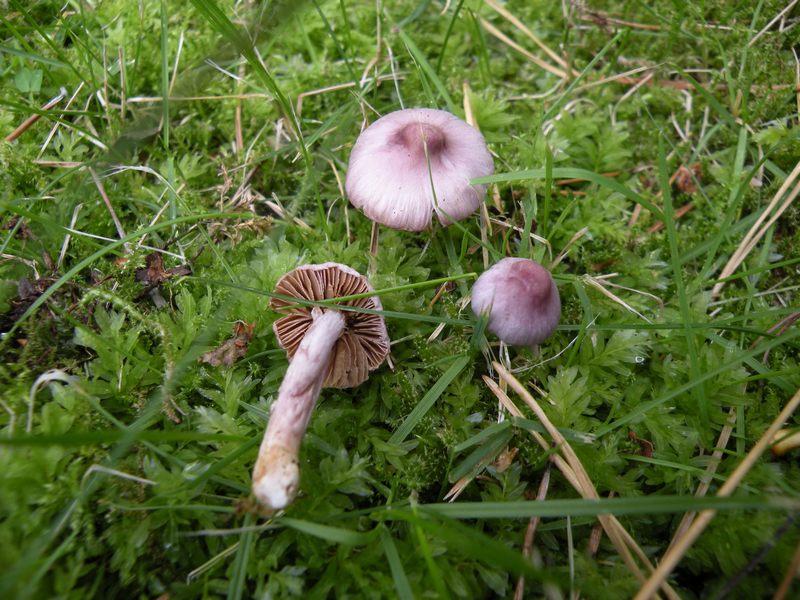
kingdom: Fungi
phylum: Basidiomycota
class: Agaricomycetes
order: Agaricales
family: Inocybaceae
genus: Inocybe
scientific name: Inocybe geophylla
